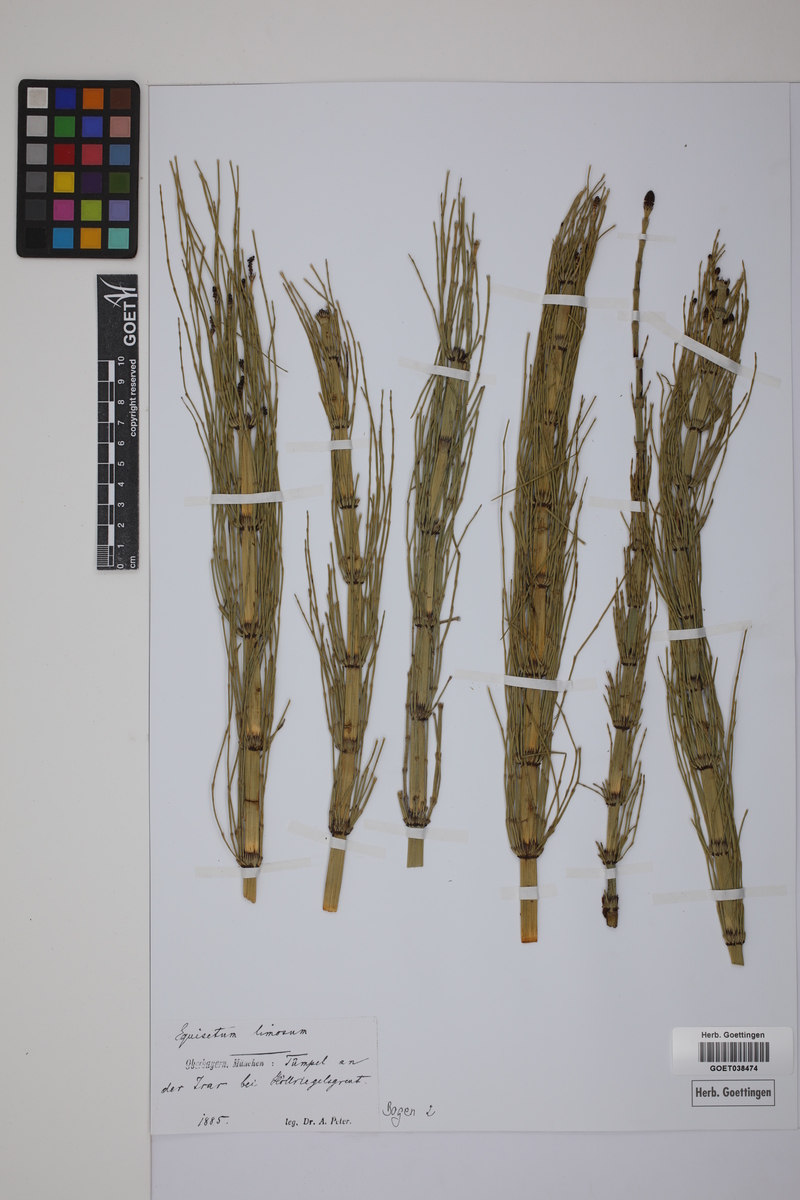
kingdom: Plantae
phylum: Tracheophyta
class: Polypodiopsida
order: Equisetales
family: Equisetaceae
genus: Equisetum
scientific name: Equisetum fluviatile
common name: Water horsetail
